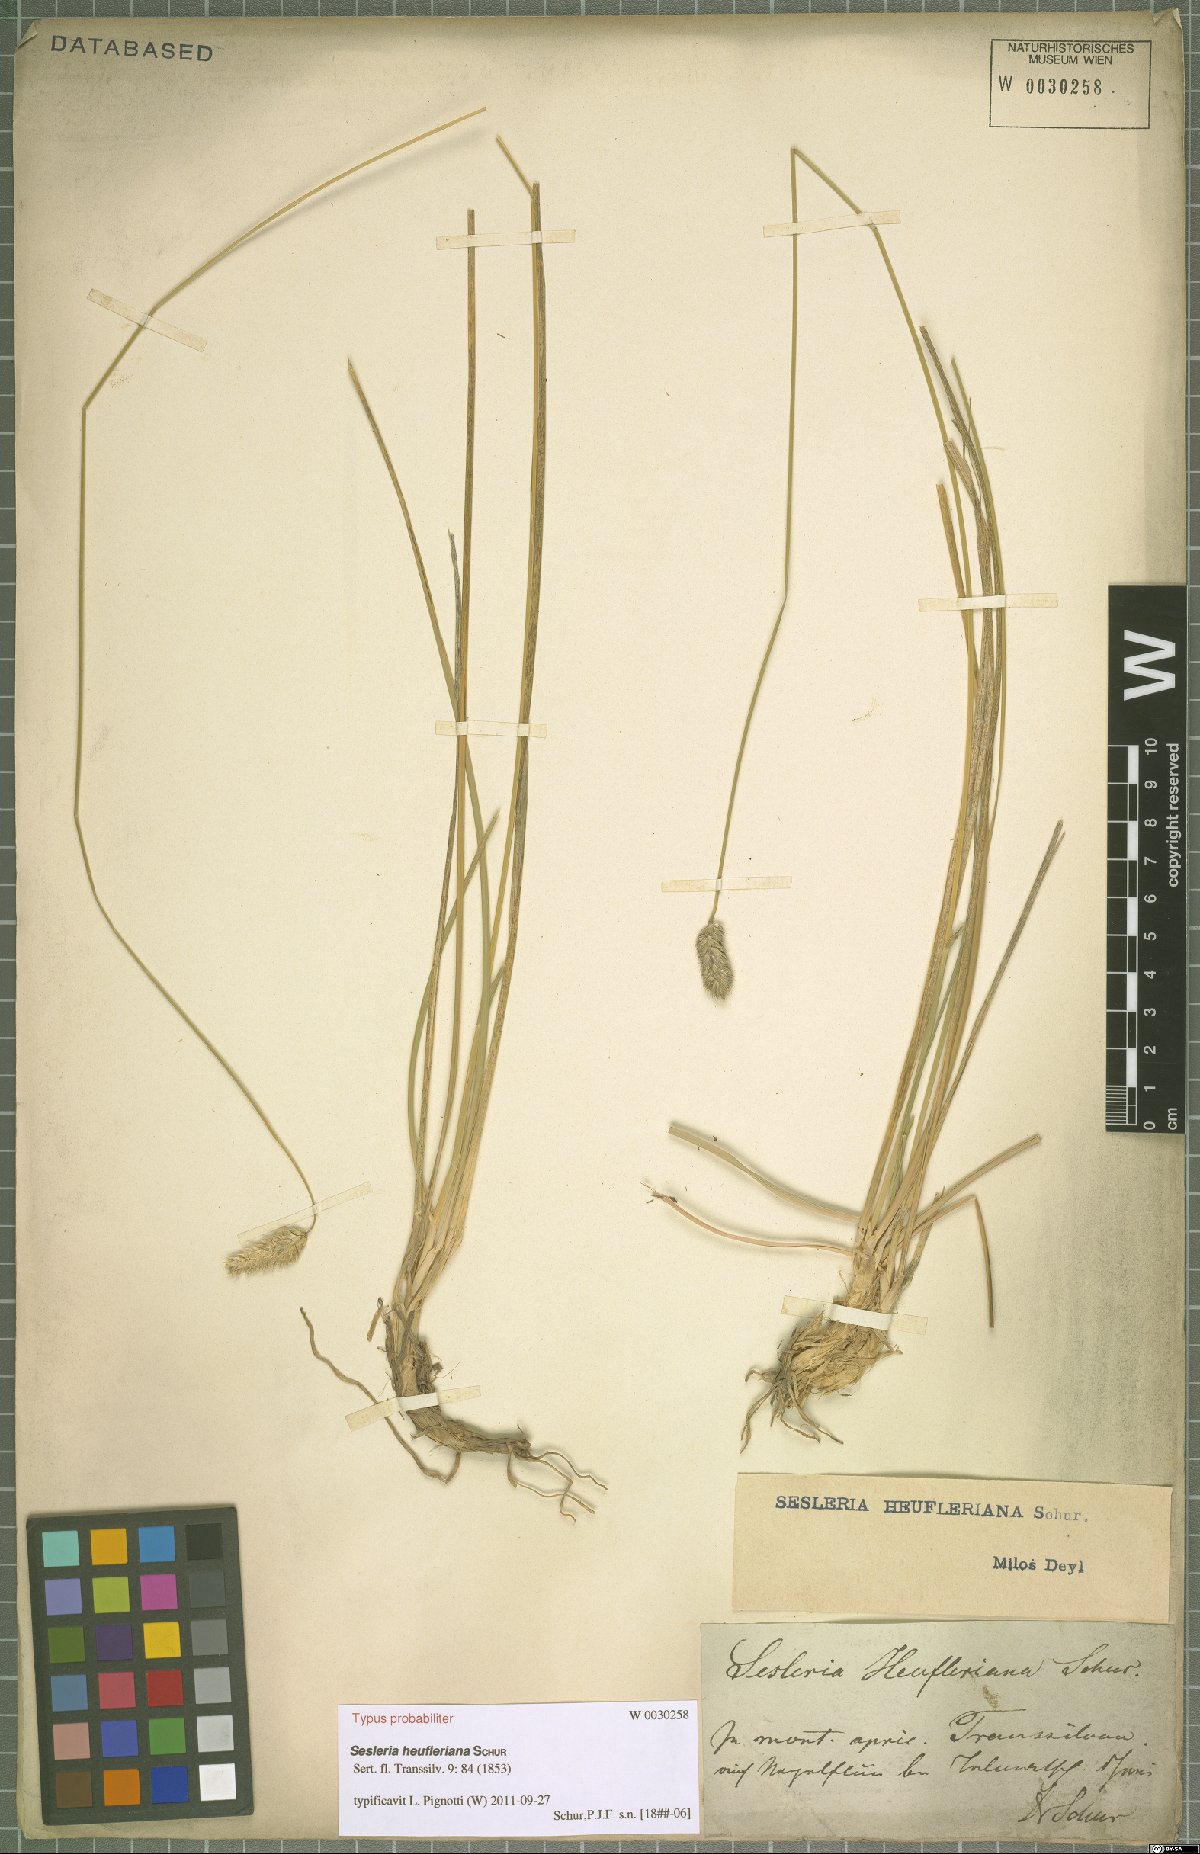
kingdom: Plantae
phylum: Tracheophyta
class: Liliopsida
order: Poales
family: Poaceae
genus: Sesleria
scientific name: Sesleria heufleriana
